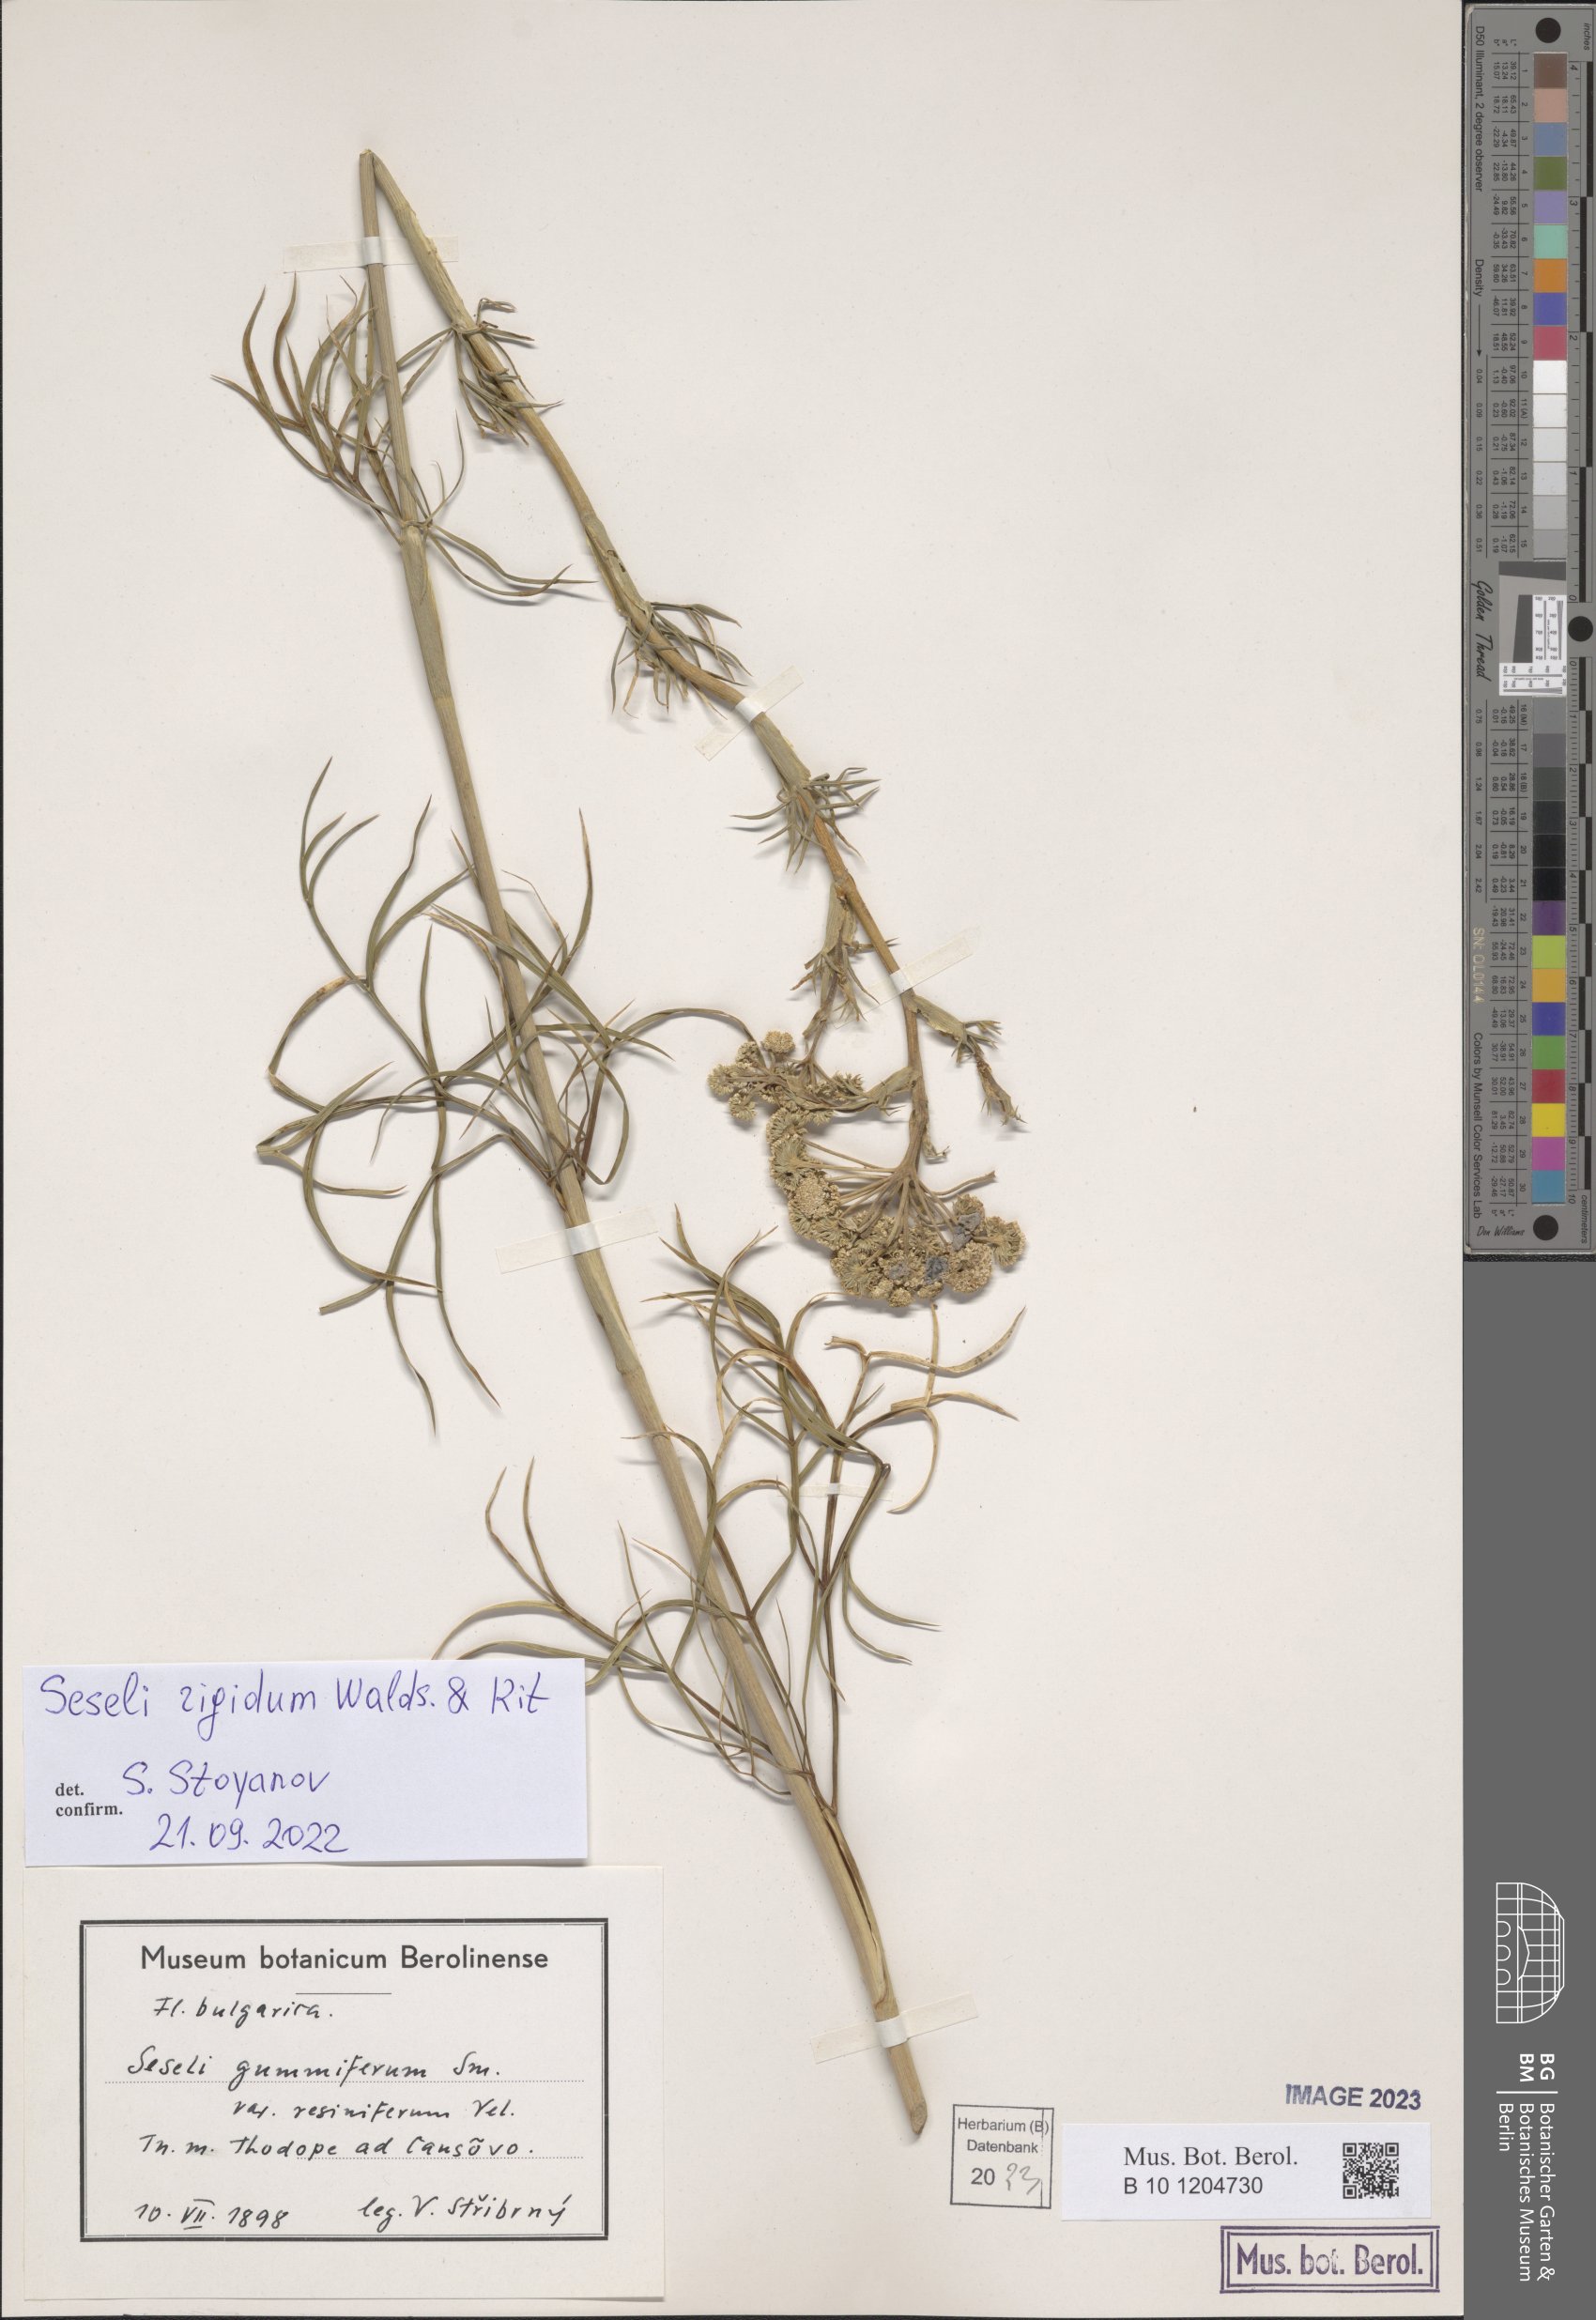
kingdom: Plantae
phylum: Tracheophyta
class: Magnoliopsida
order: Apiales
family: Apiaceae
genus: Seseli
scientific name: Seseli rigidum
